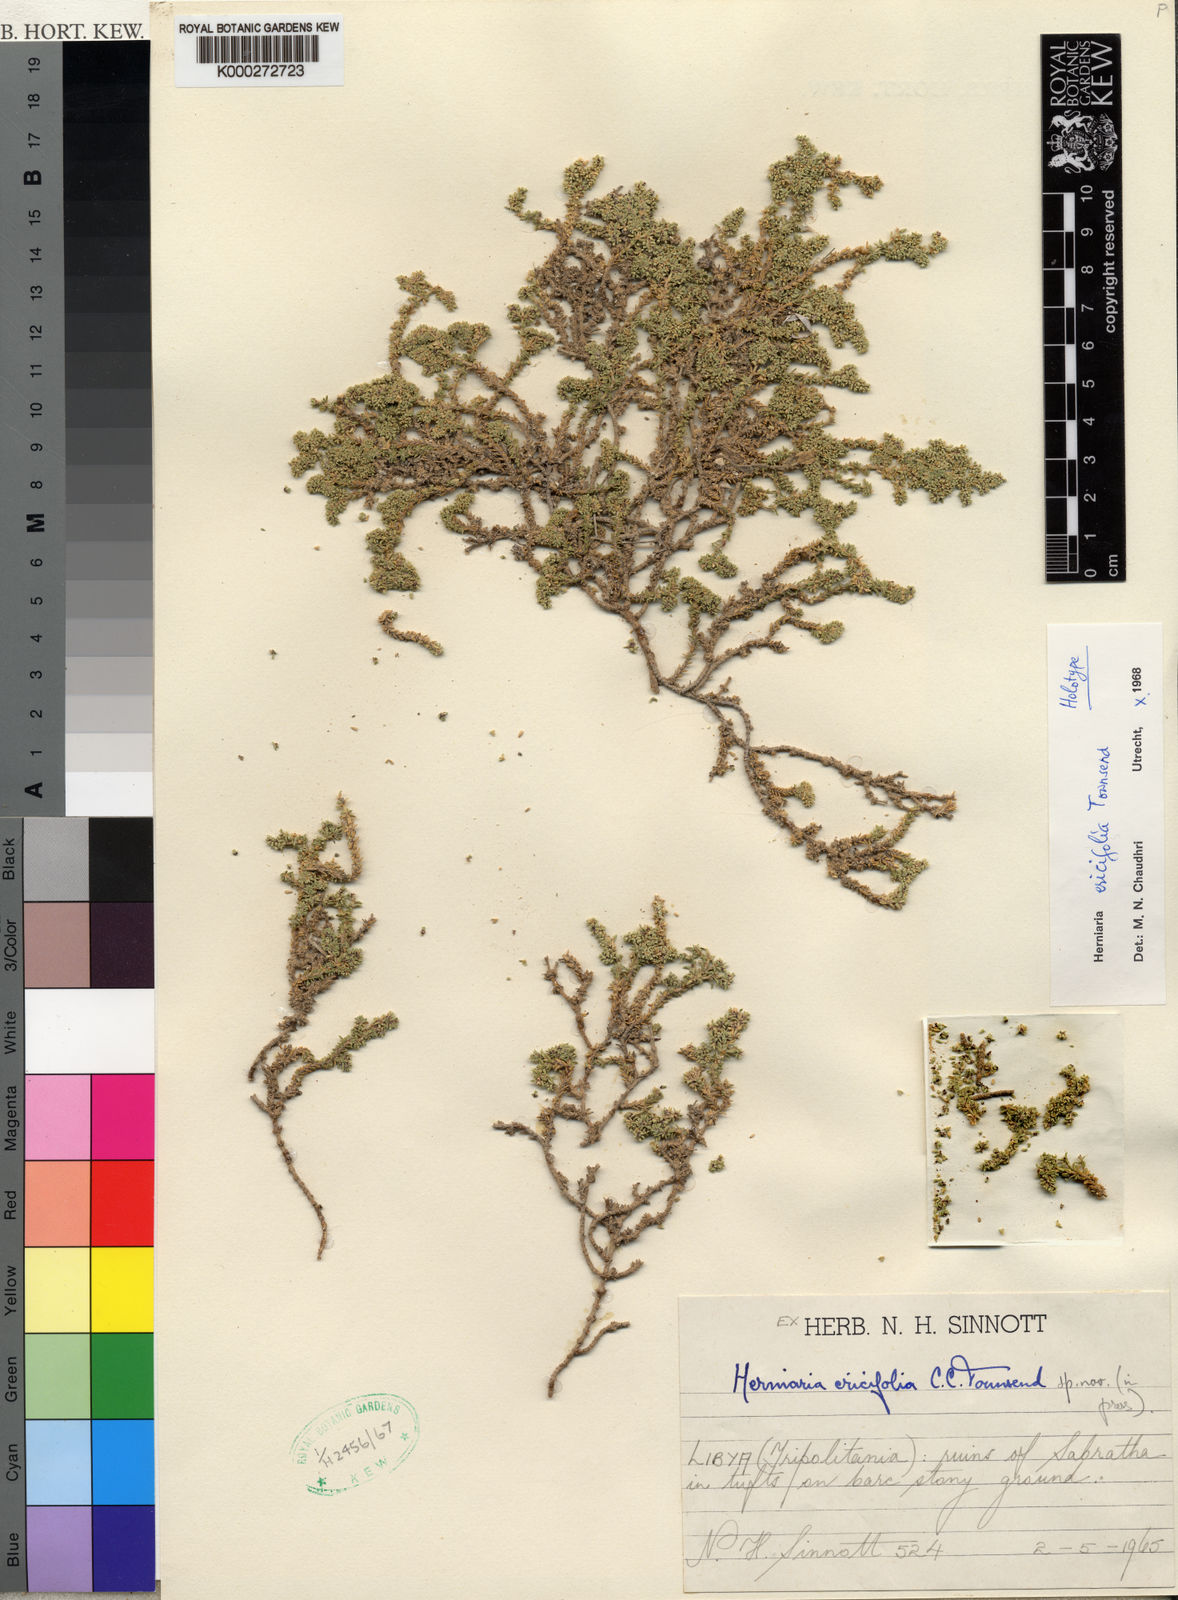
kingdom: Plantae
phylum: Tracheophyta
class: Magnoliopsida
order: Caryophyllales
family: Caryophyllaceae
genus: Herniaria
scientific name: Herniaria ericifolia
